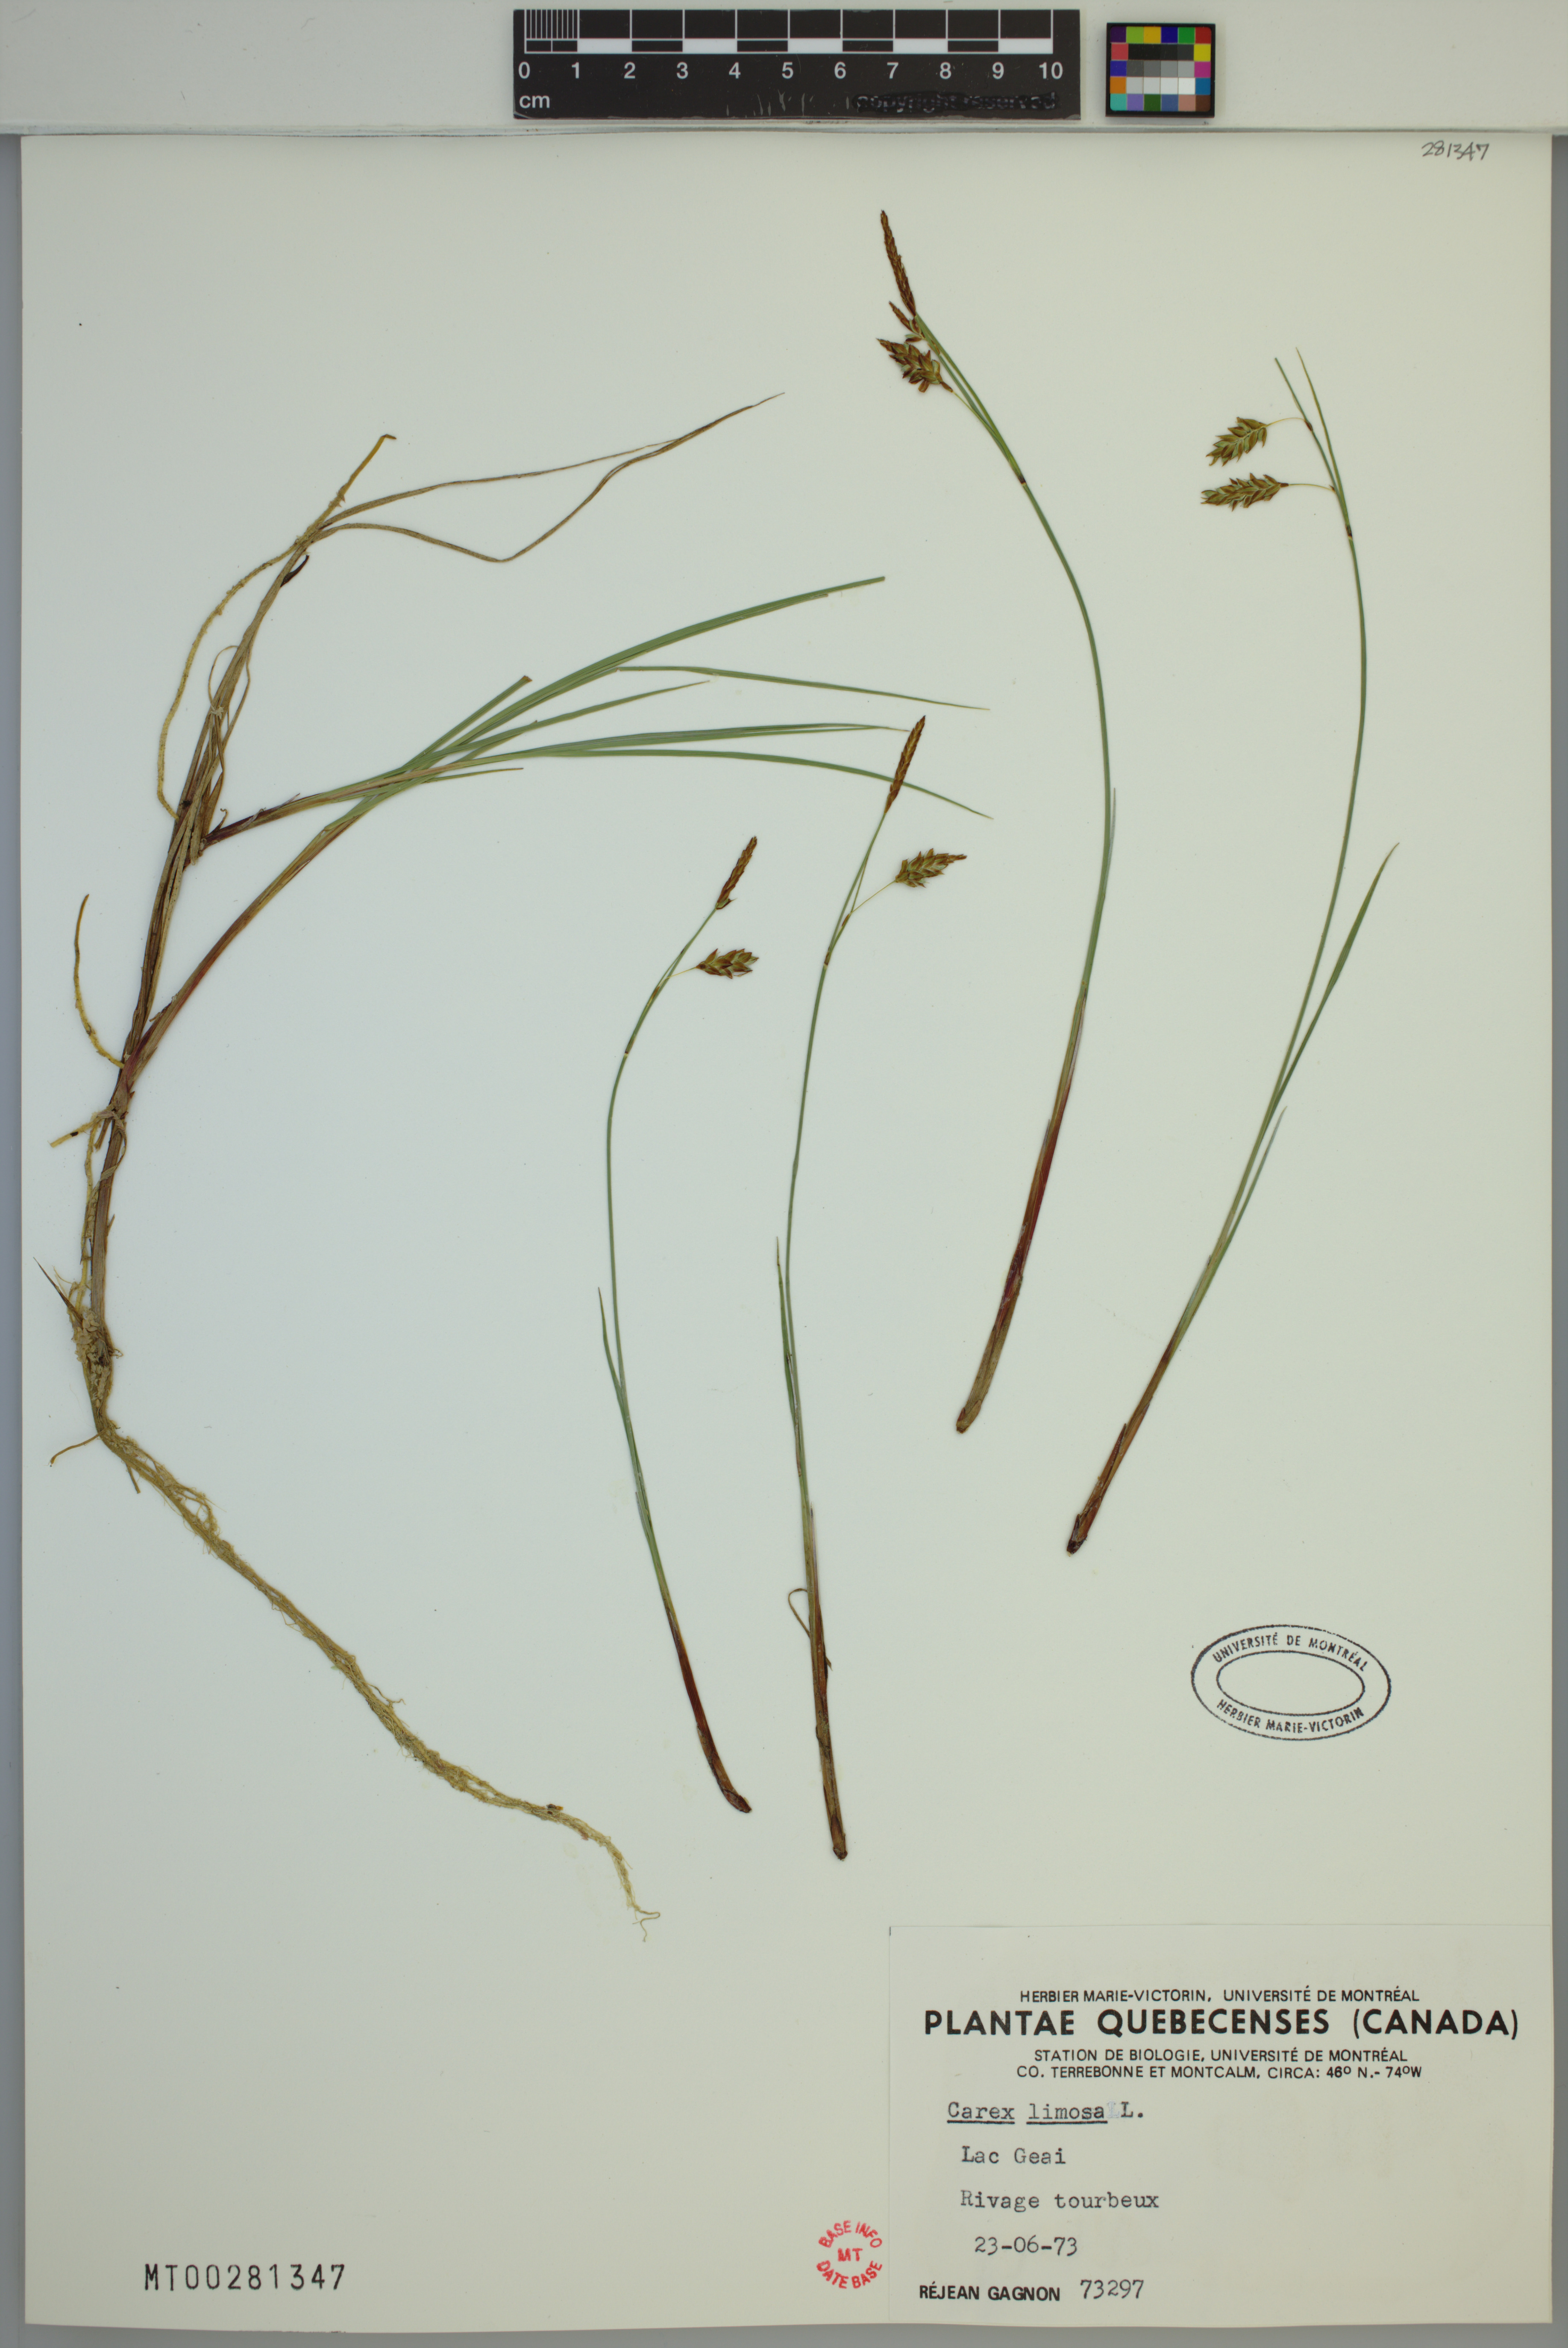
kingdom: Plantae
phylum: Tracheophyta
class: Liliopsida
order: Poales
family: Cyperaceae
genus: Carex
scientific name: Carex limosa
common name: Bog sedge
